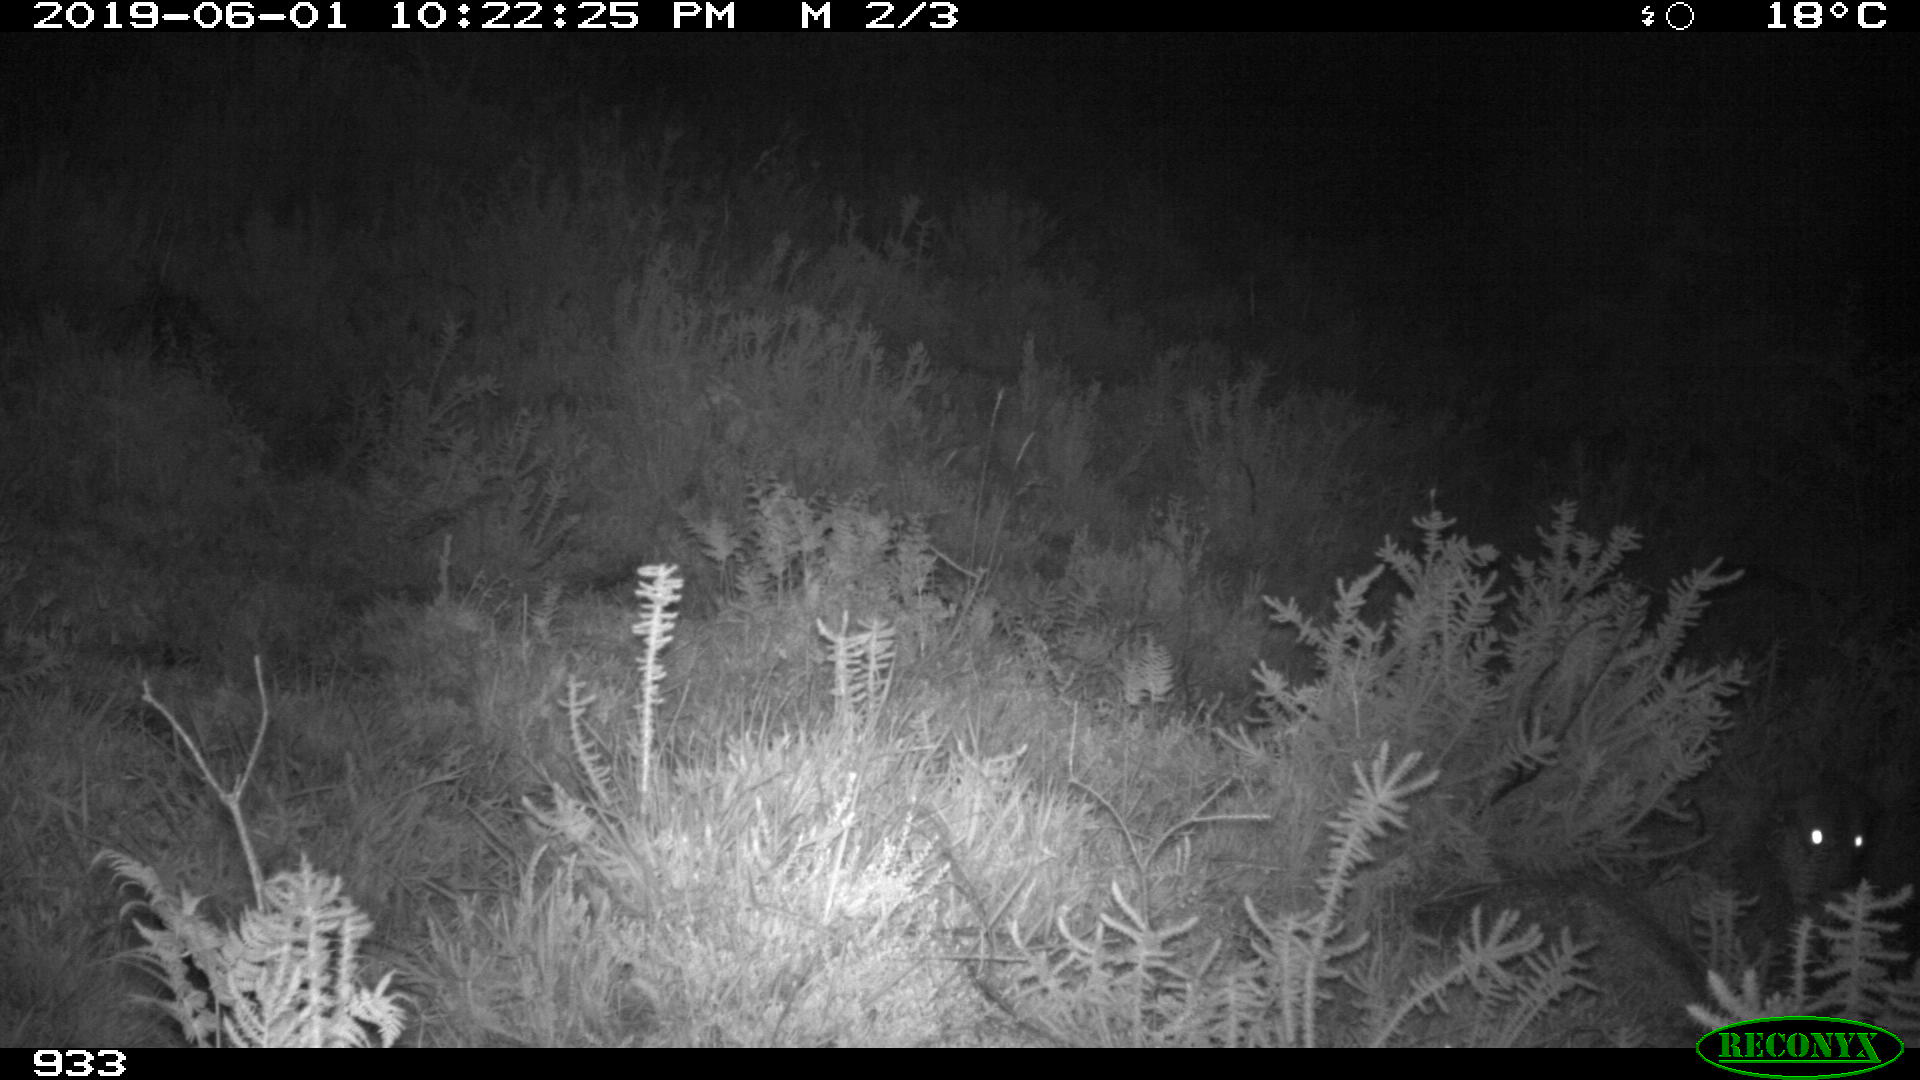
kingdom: Animalia
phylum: Chordata
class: Mammalia
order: Carnivora
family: Canidae
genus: Canis
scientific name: Canis lupus
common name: Gray wolf
